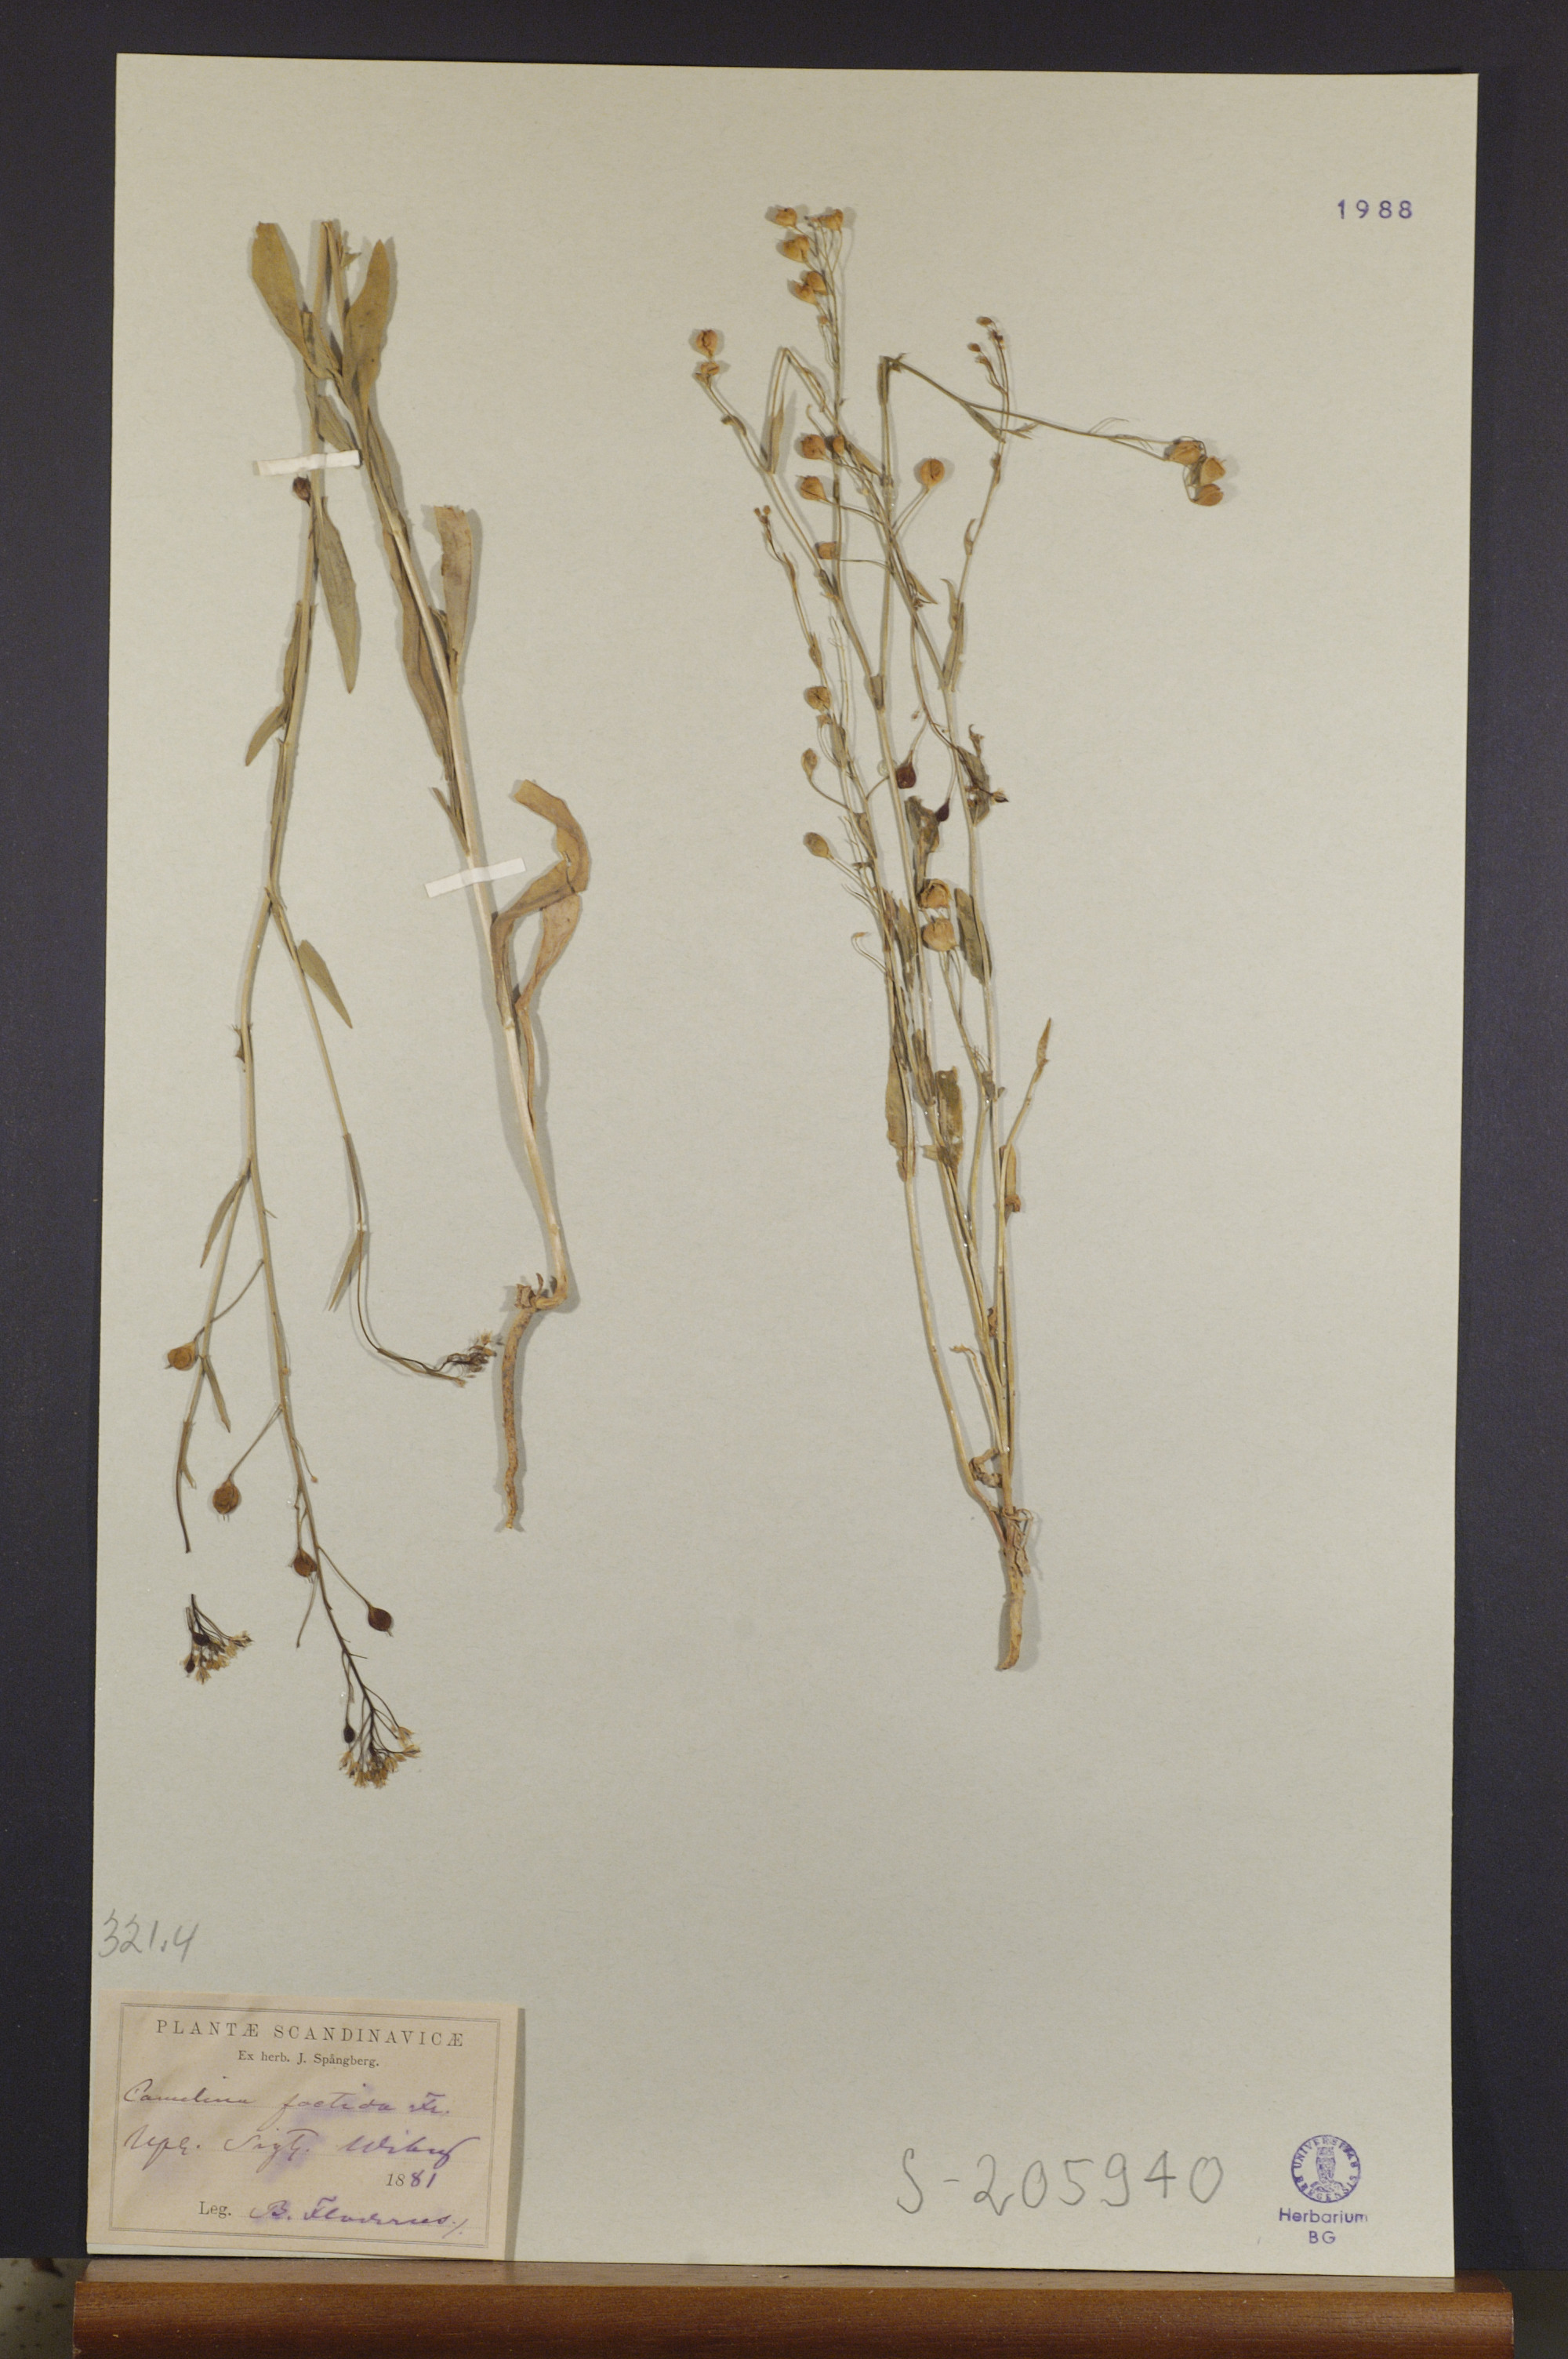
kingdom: Plantae
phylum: Tracheophyta
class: Magnoliopsida
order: Brassicales
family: Brassicaceae
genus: Camelina
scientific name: Camelina alyssum
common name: Gold-of-pleasure
